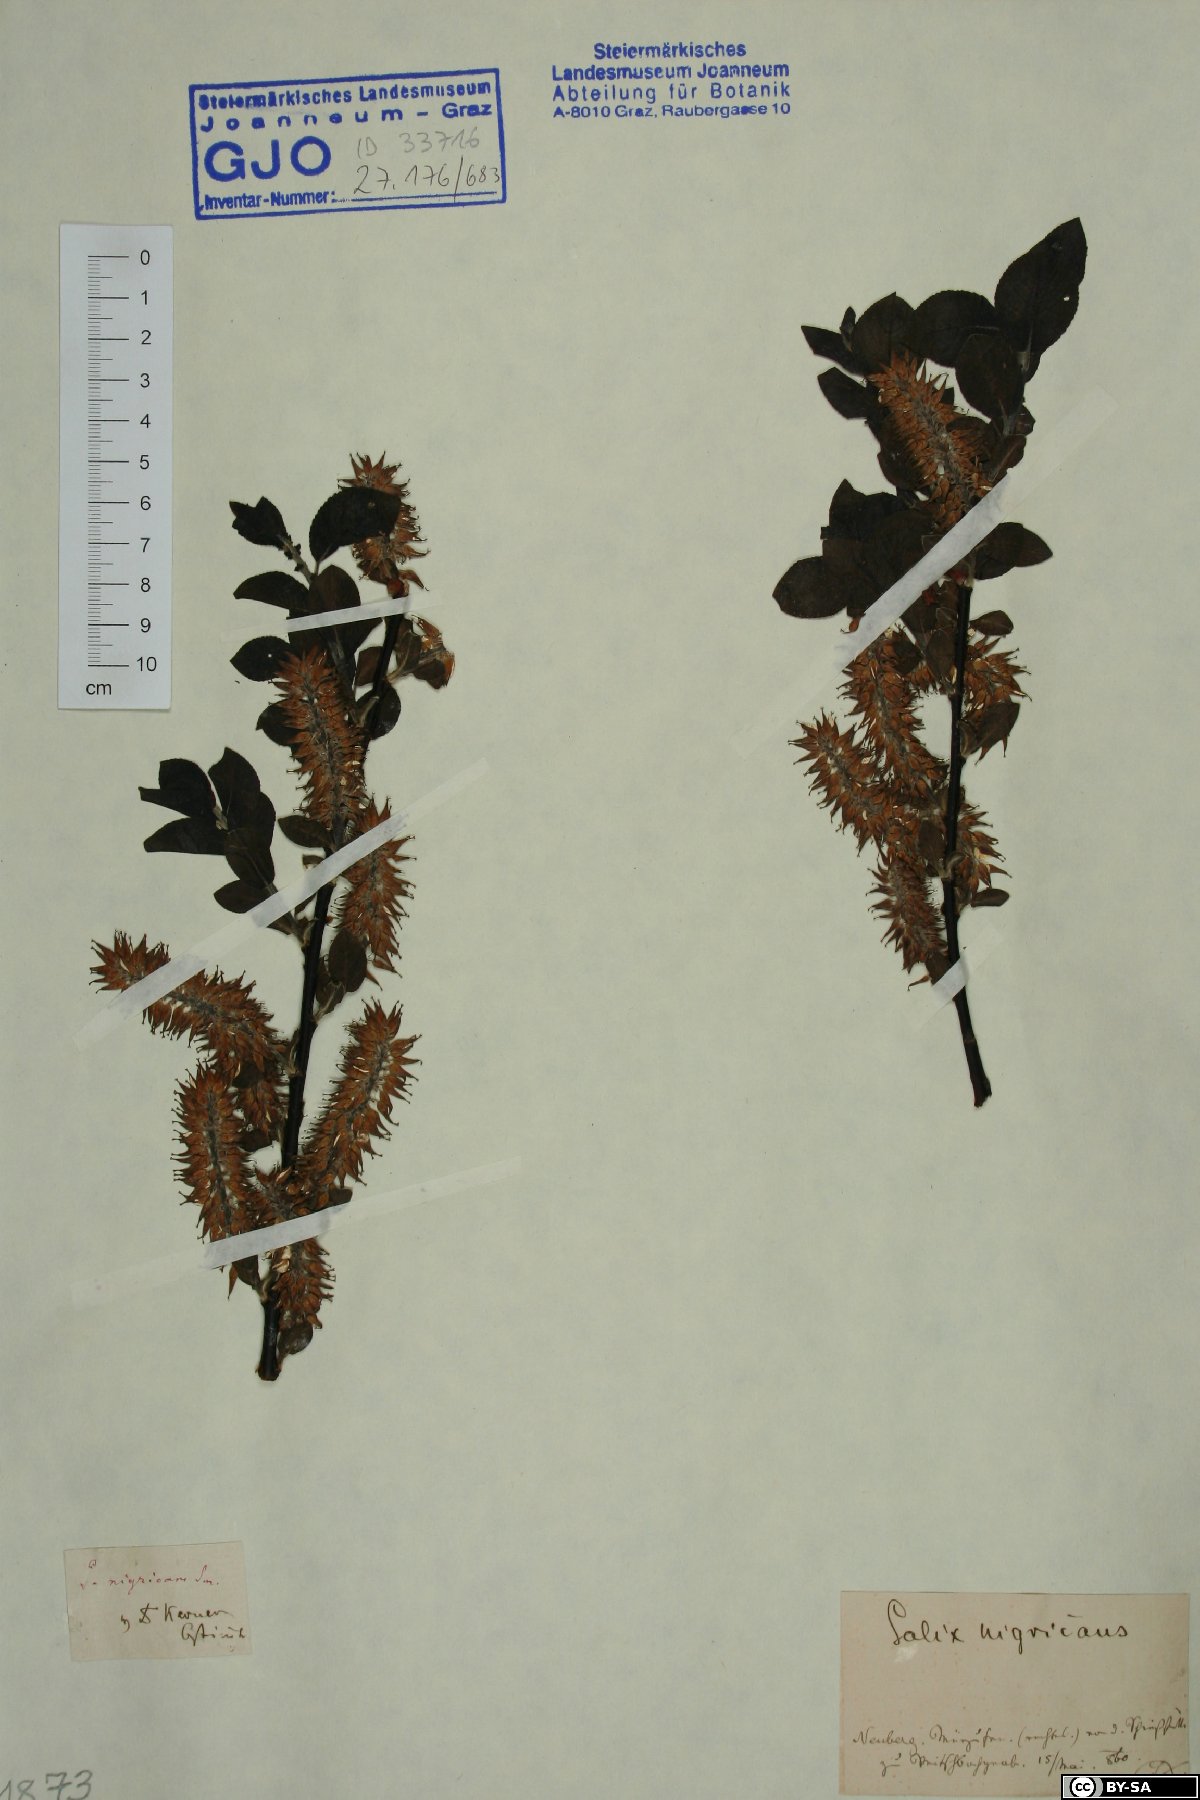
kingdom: Plantae
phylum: Tracheophyta
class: Magnoliopsida
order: Malpighiales
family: Salicaceae
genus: Salix
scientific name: Salix myrsinifolia
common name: Dark-leaved willow
